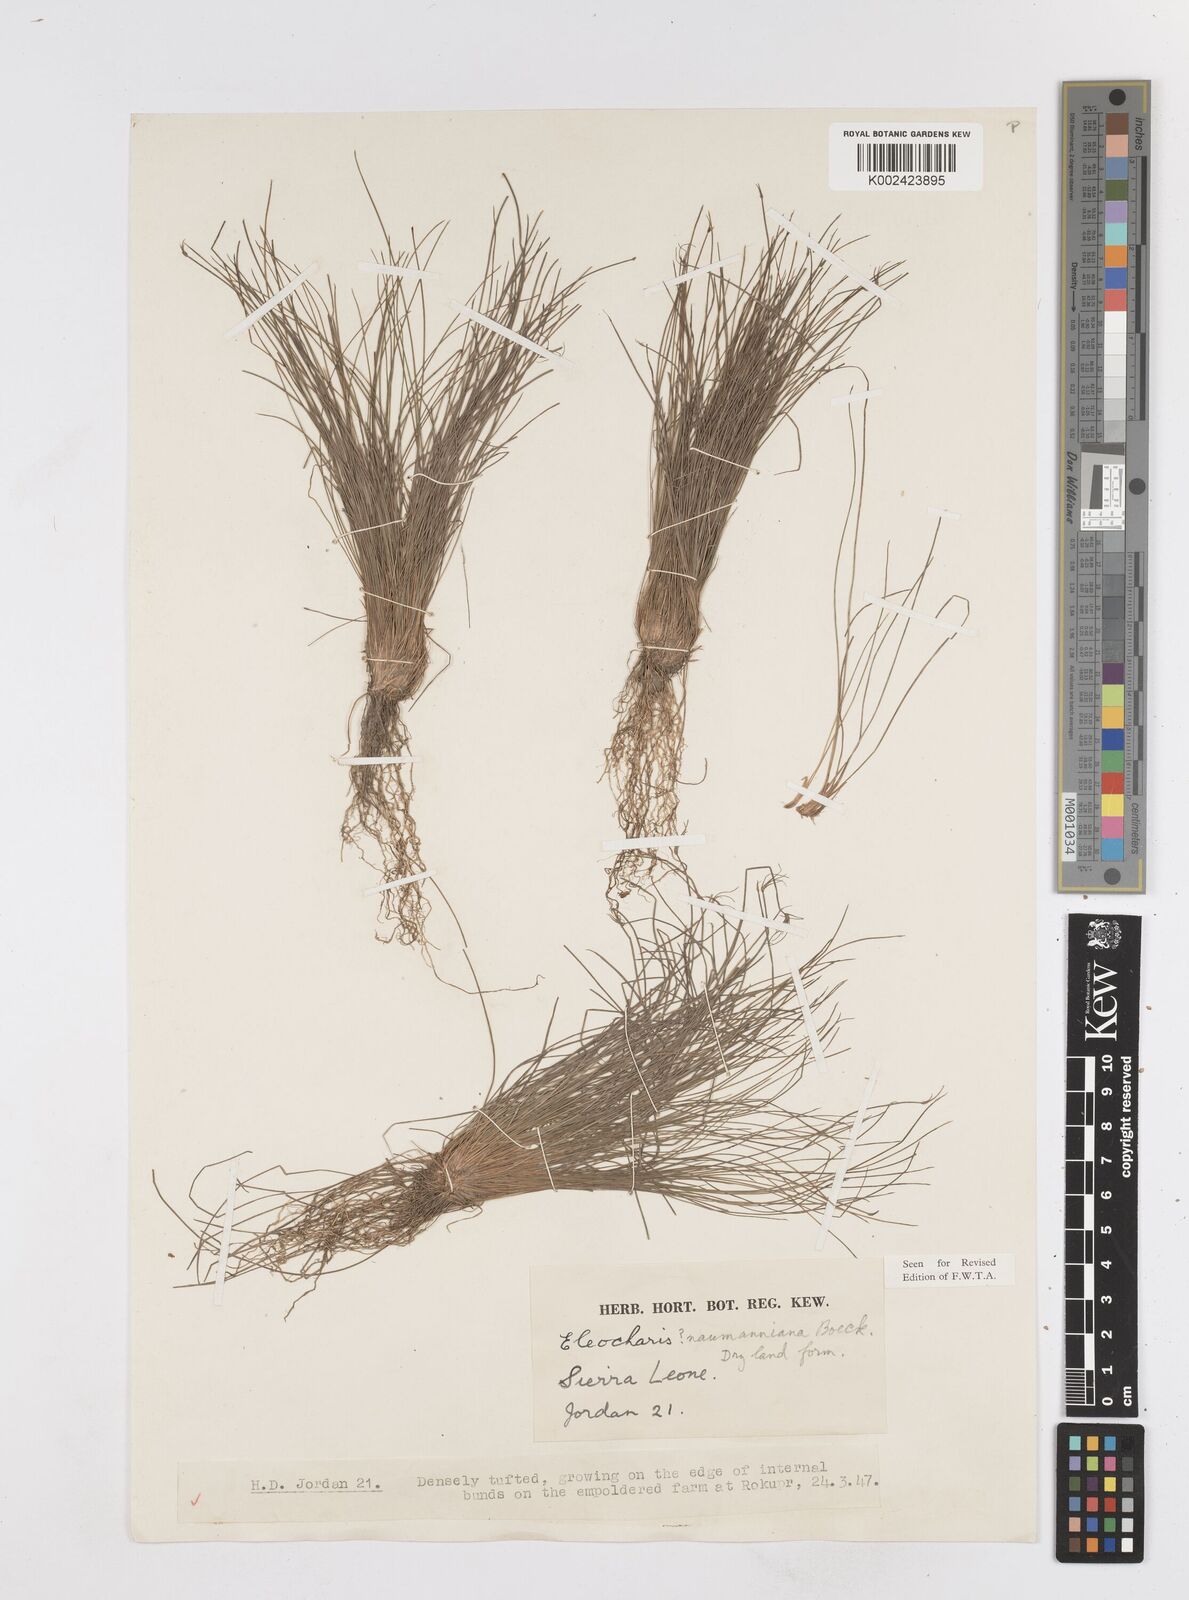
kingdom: Plantae
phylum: Tracheophyta
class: Liliopsida
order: Poales
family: Cyperaceae
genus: Eleocharis
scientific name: Eleocharis naumanniana
